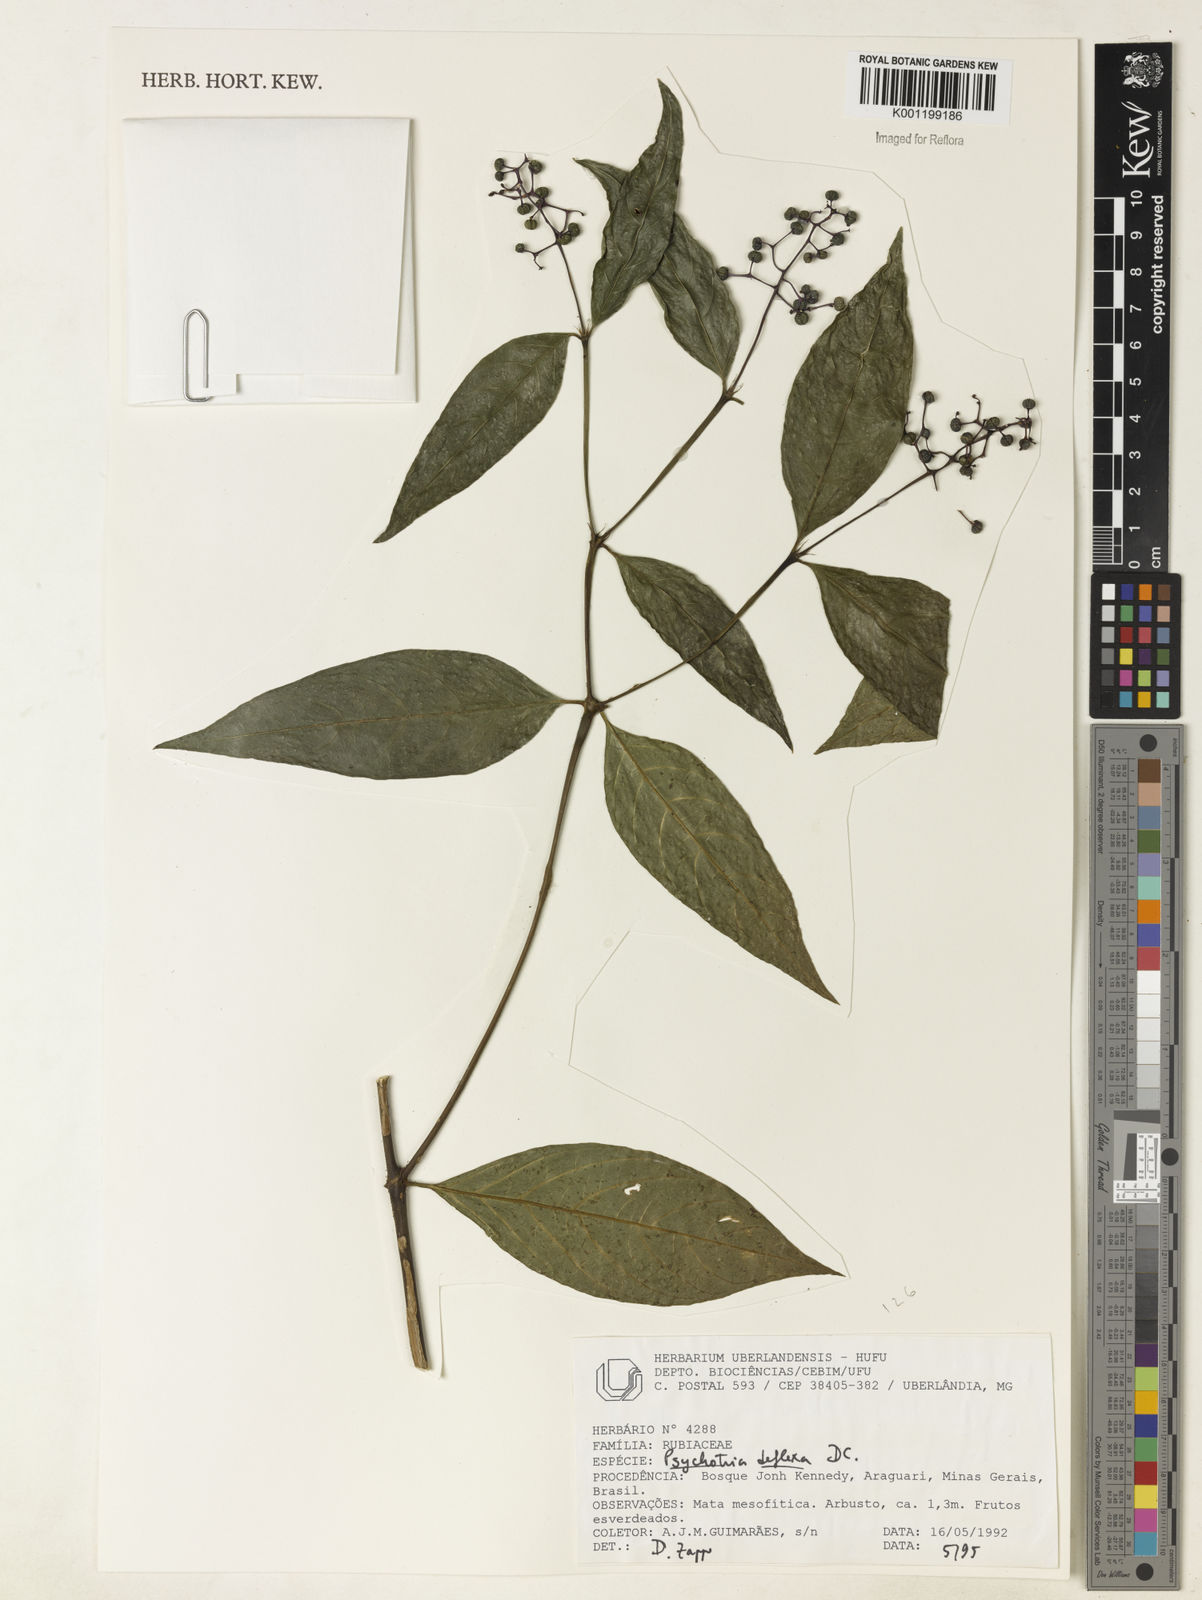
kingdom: Plantae
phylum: Tracheophyta
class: Magnoliopsida
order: Gentianales
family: Rubiaceae
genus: Palicourea
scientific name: Palicourea deflexa
